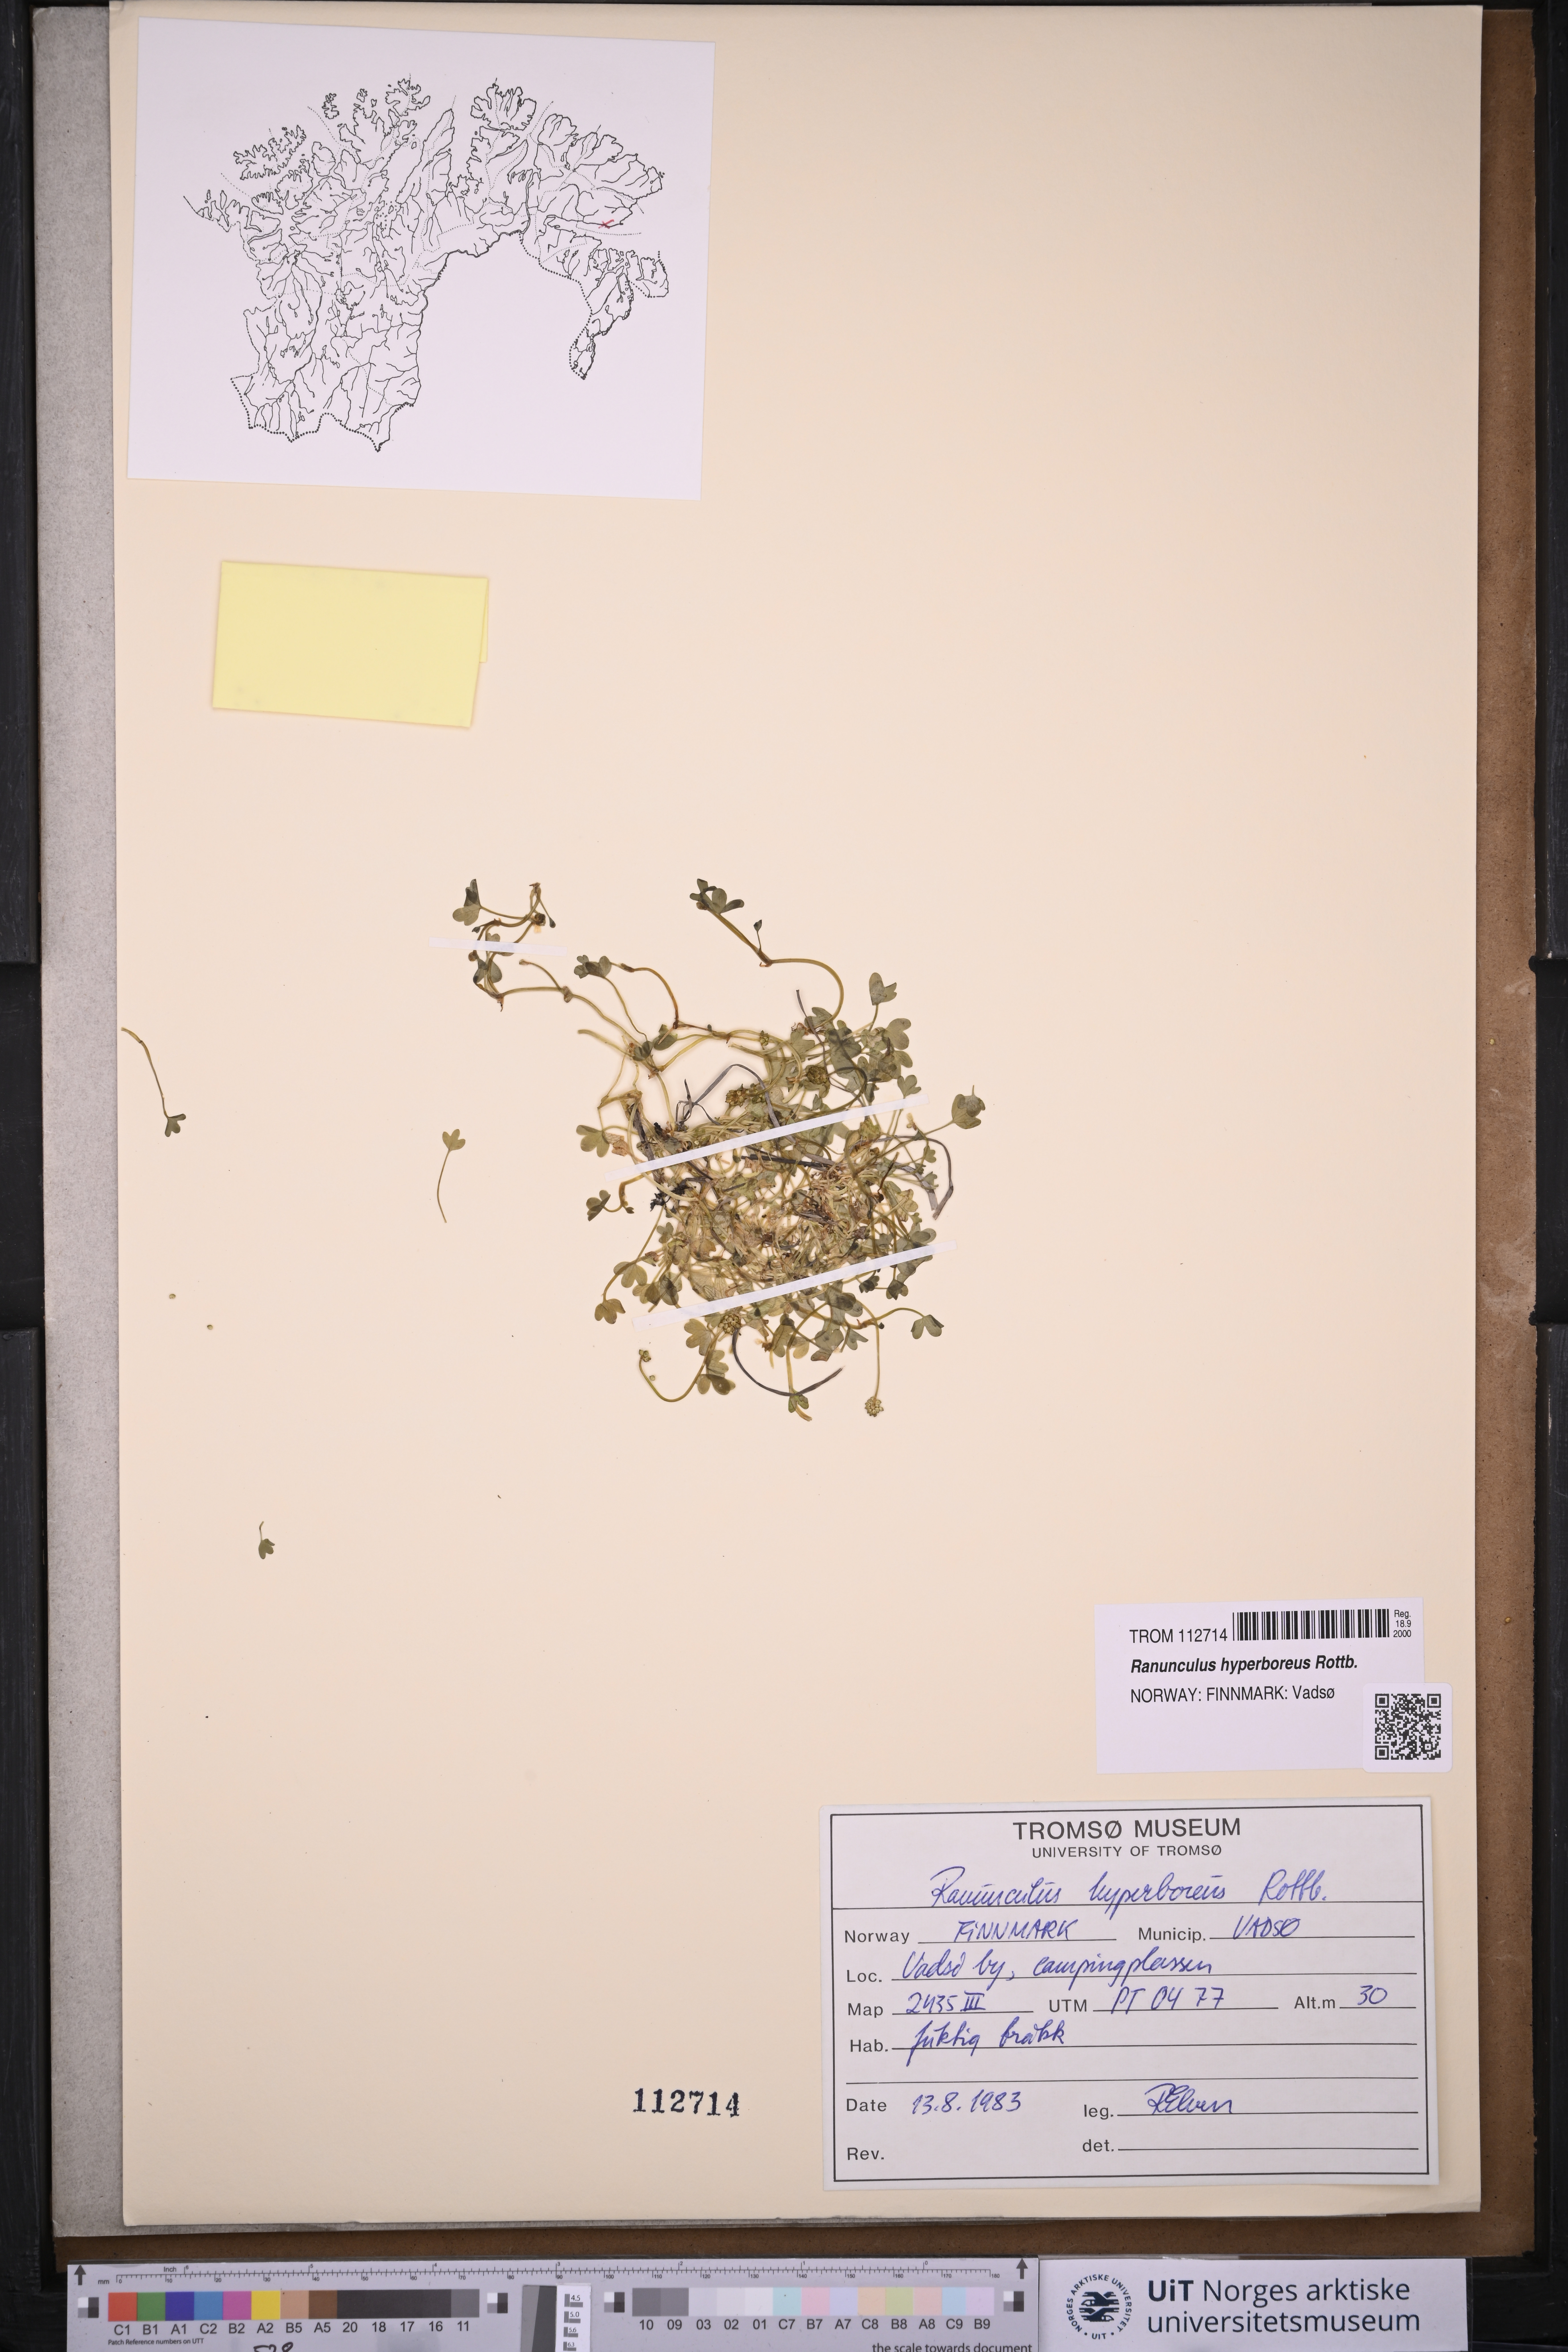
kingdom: Plantae
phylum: Tracheophyta
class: Magnoliopsida
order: Ranunculales
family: Ranunculaceae
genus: Ranunculus
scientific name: Ranunculus hyperboreus
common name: Arctic buttercup
